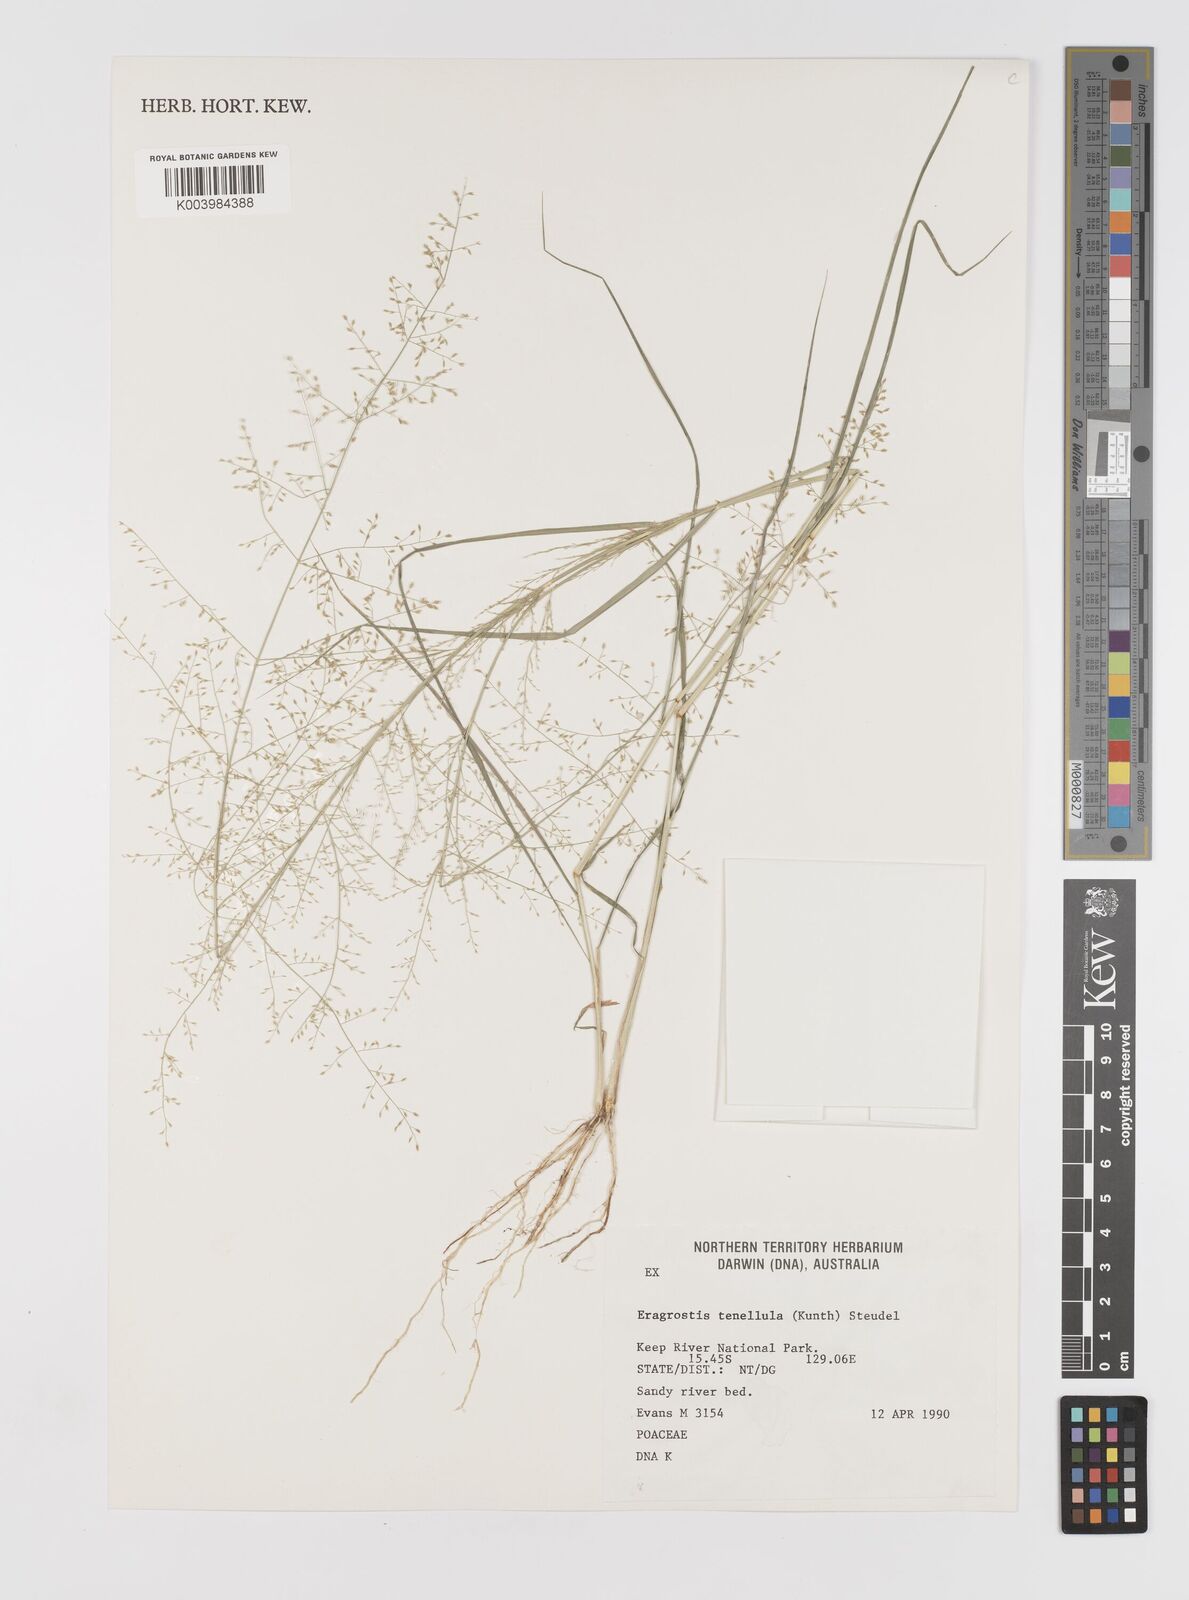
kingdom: Plantae
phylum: Tracheophyta
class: Liliopsida
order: Poales
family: Poaceae
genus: Eragrostis
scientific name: Eragrostis tenellula
